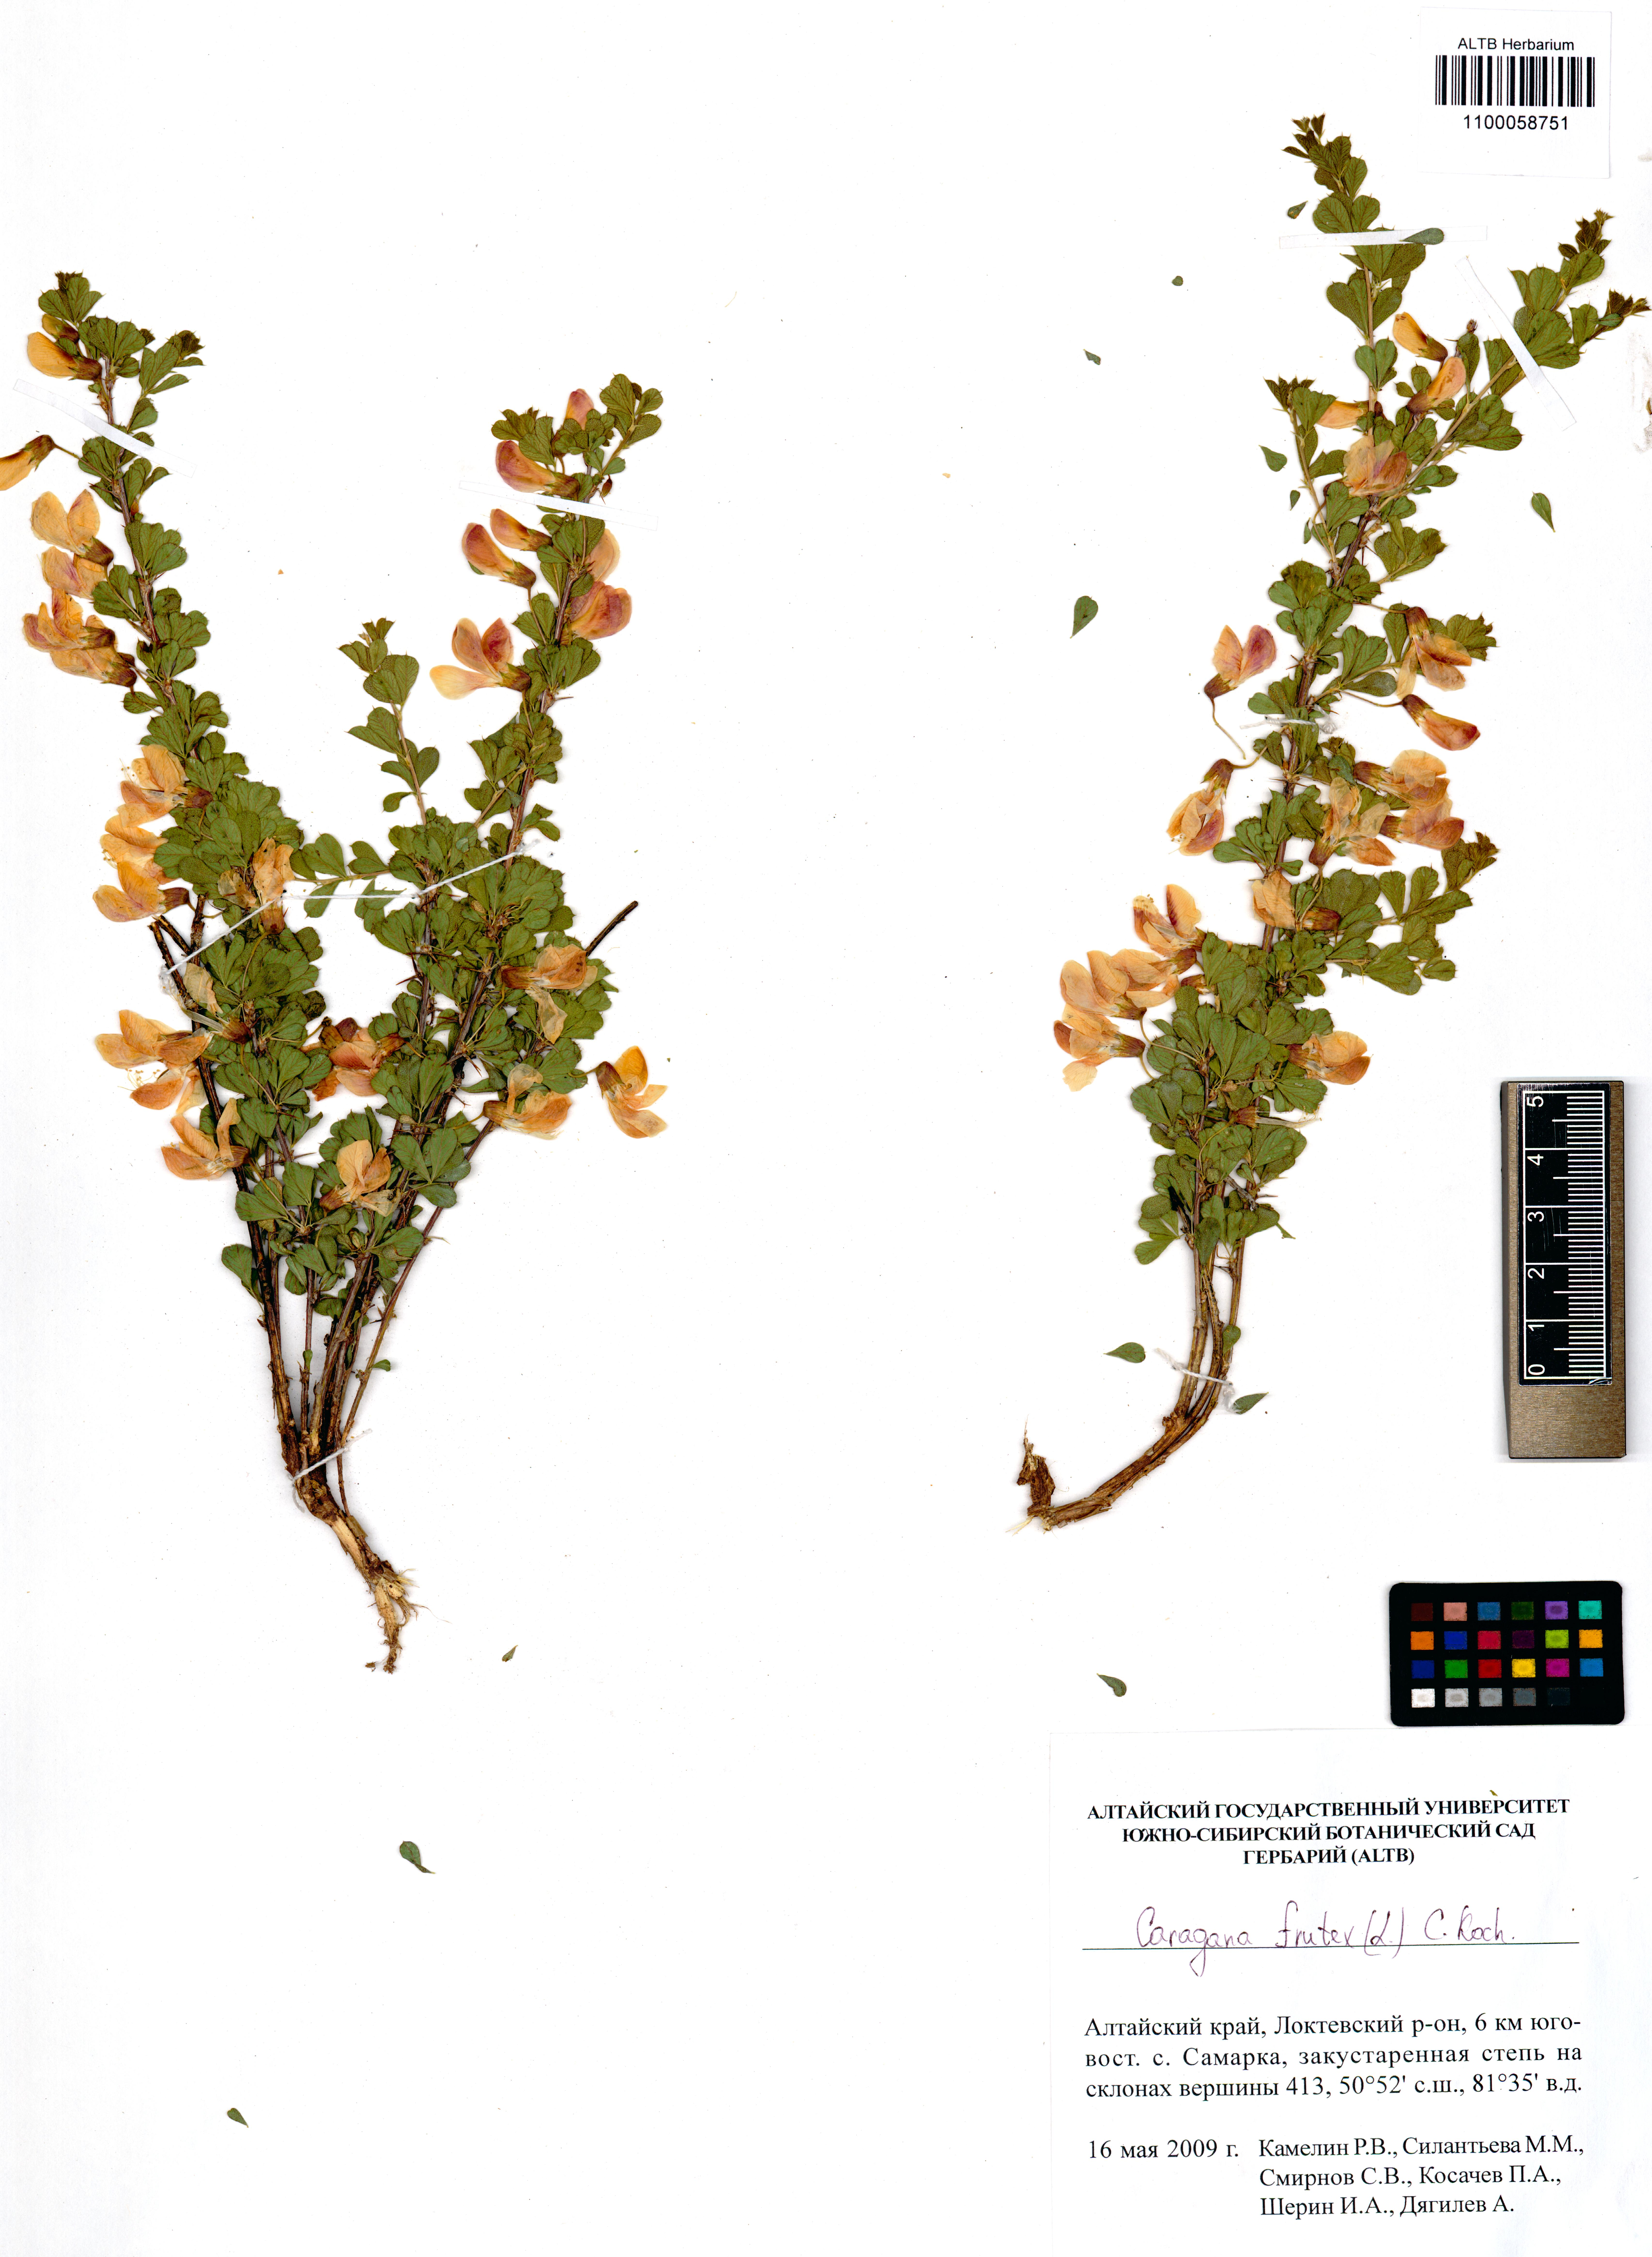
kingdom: Plantae
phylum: Tracheophyta
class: Magnoliopsida
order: Fabales
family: Fabaceae
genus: Caragana
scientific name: Caragana frutex
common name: Russian peashrub
